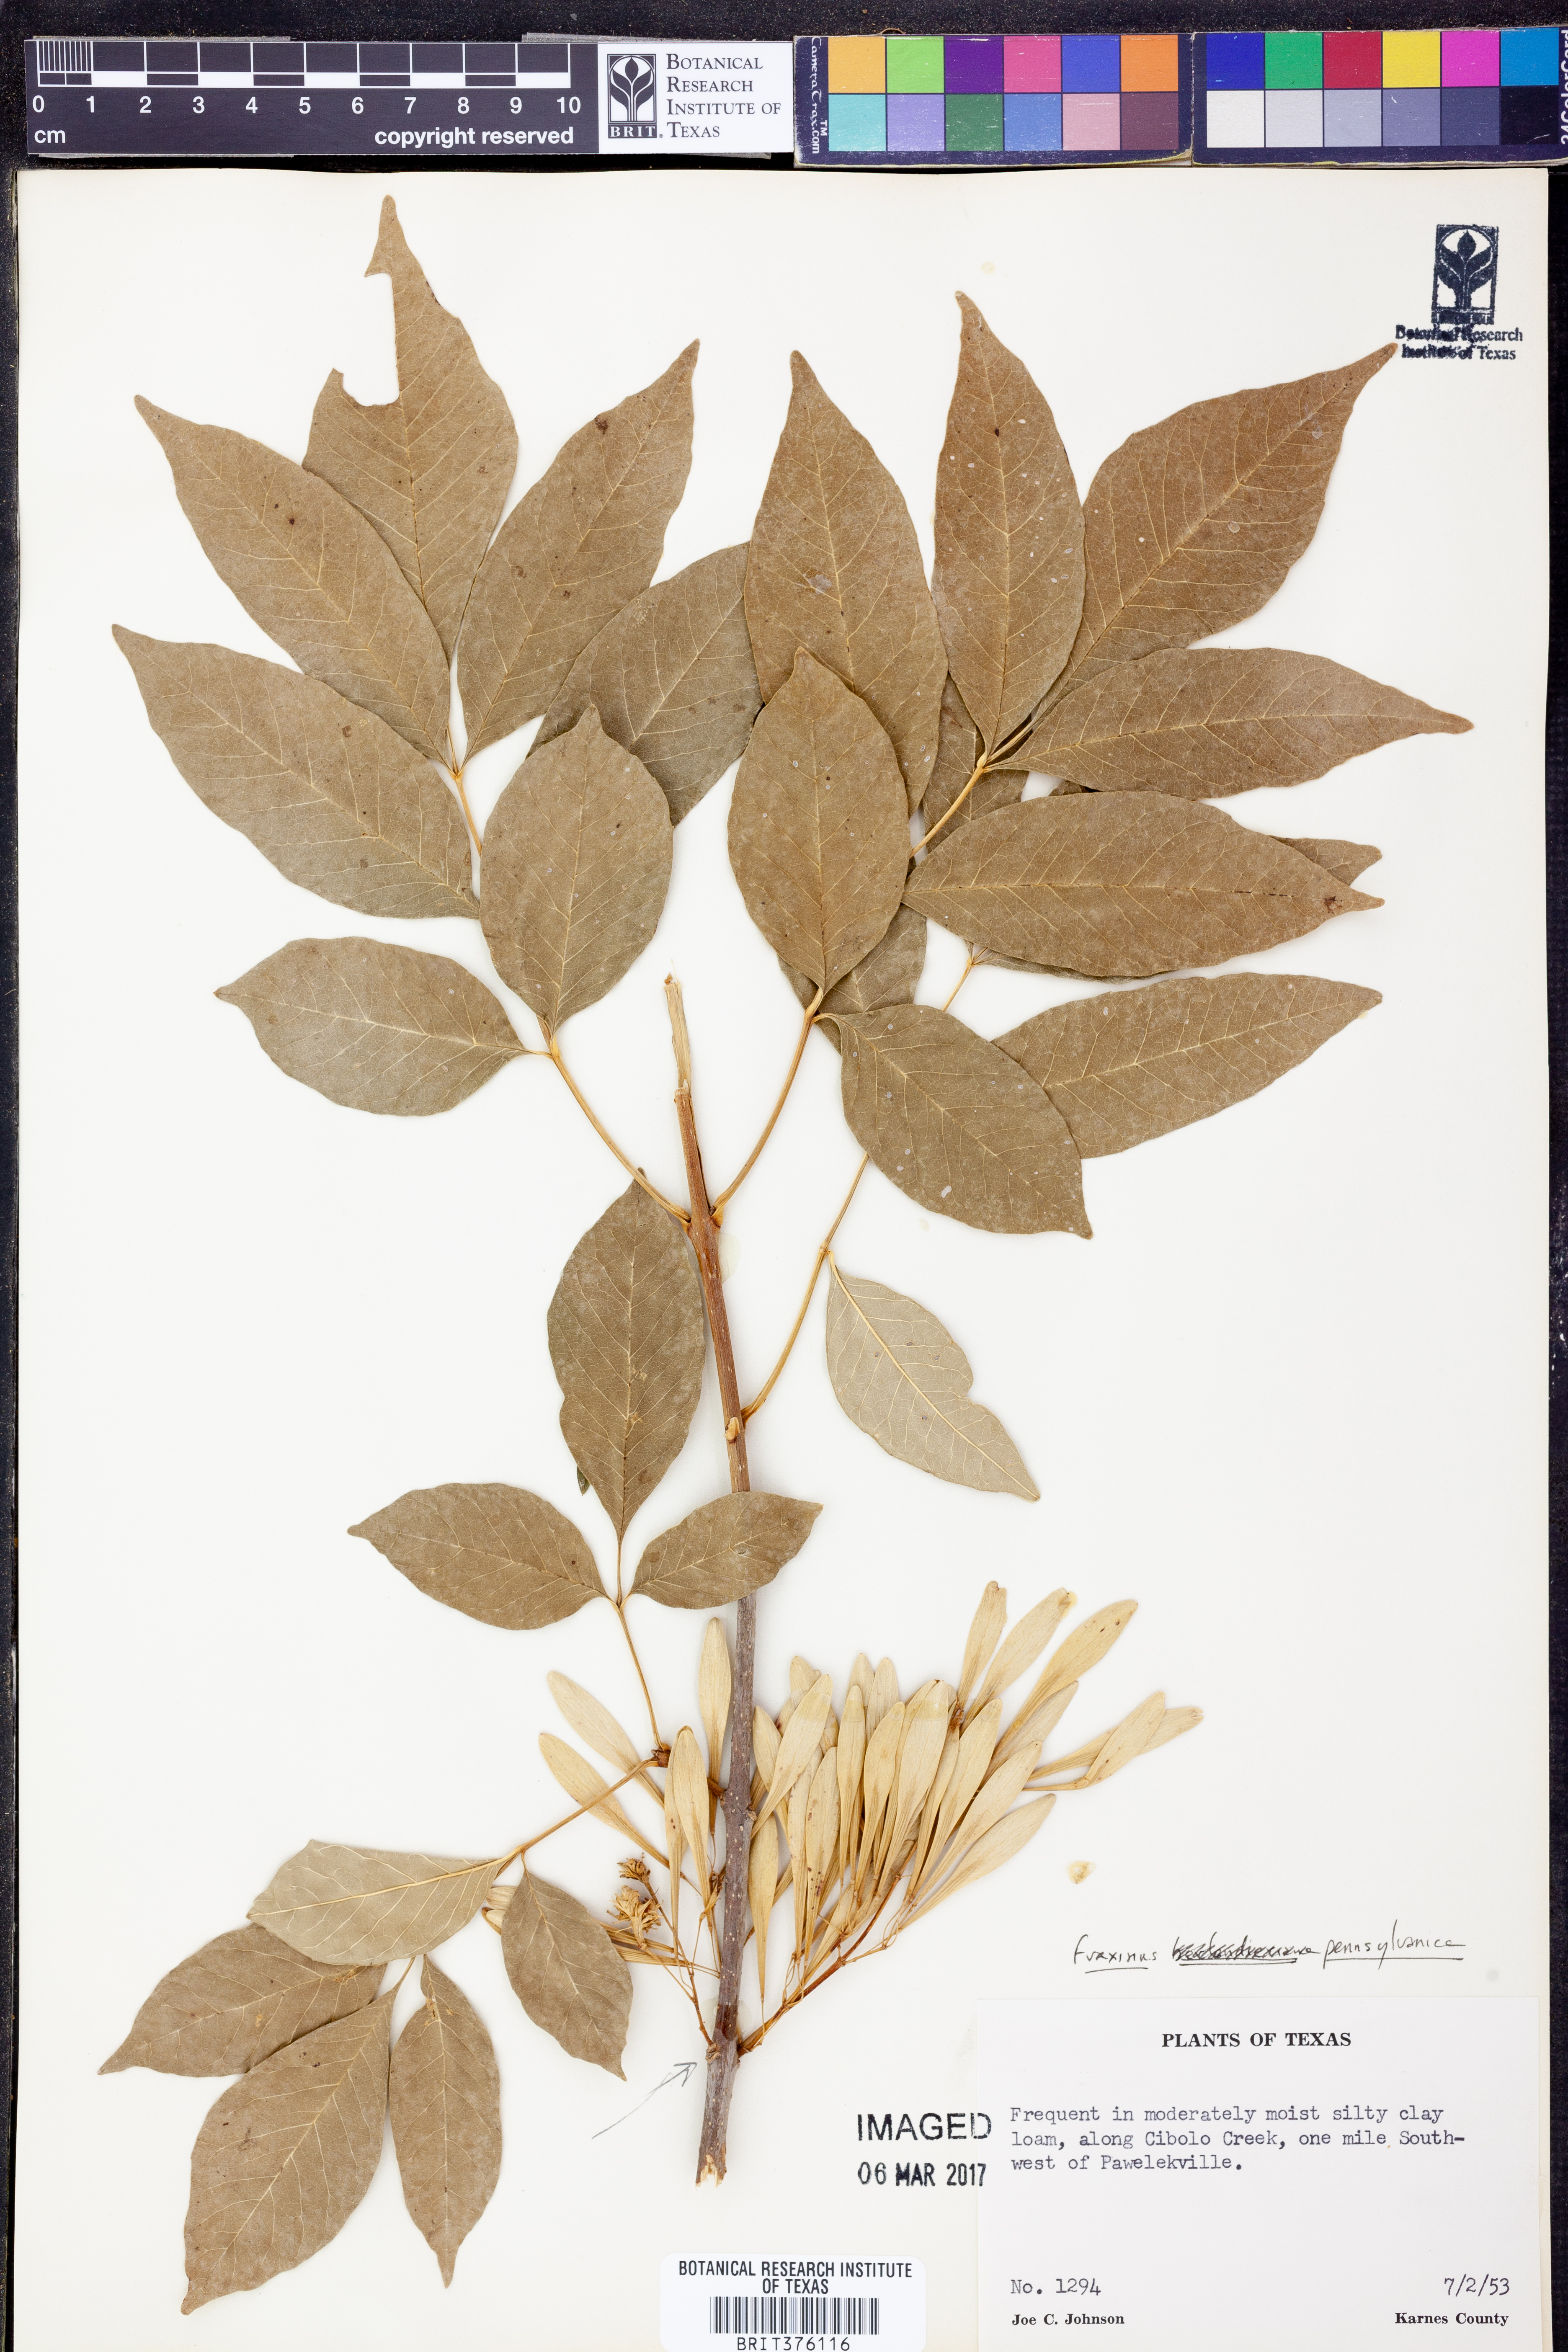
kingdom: Plantae
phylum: Tracheophyta
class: Magnoliopsida
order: Lamiales
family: Oleaceae
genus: Fraxinus
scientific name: Fraxinus pennsylvanica
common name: Green ash
